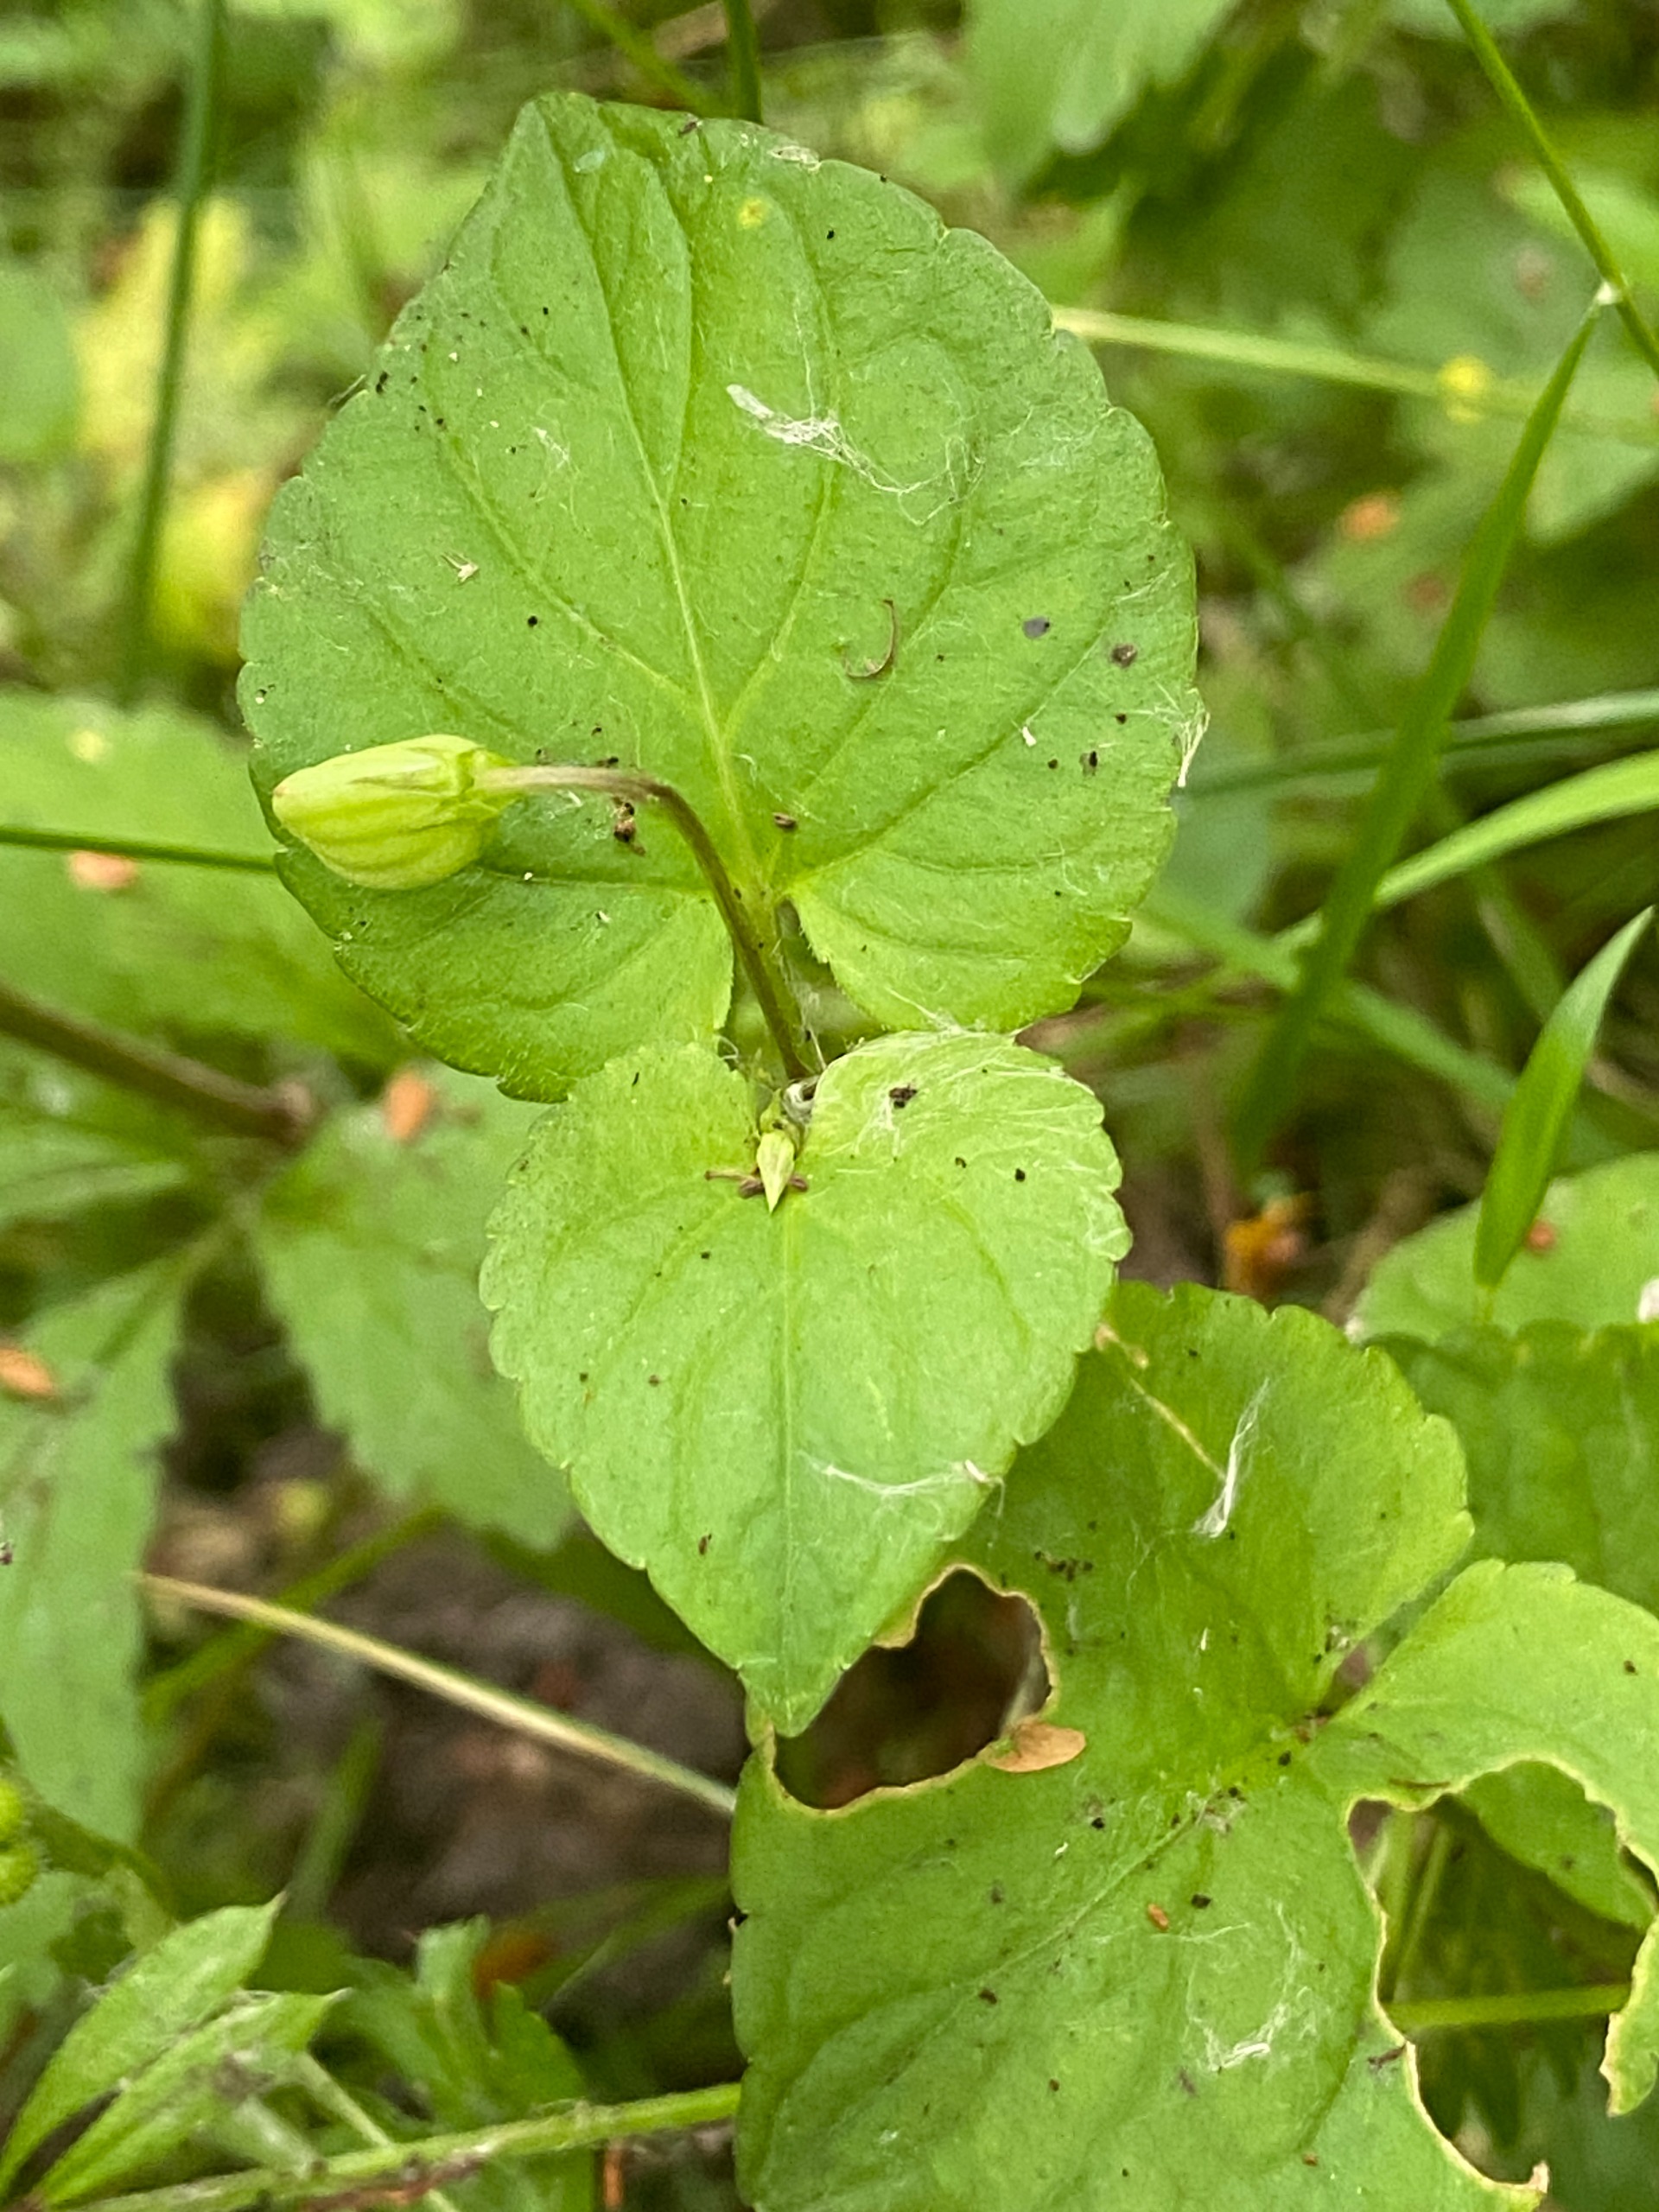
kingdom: Plantae
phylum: Tracheophyta
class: Magnoliopsida
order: Malpighiales
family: Violaceae
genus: Viola
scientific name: Viola riviniana
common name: Krat-viol
